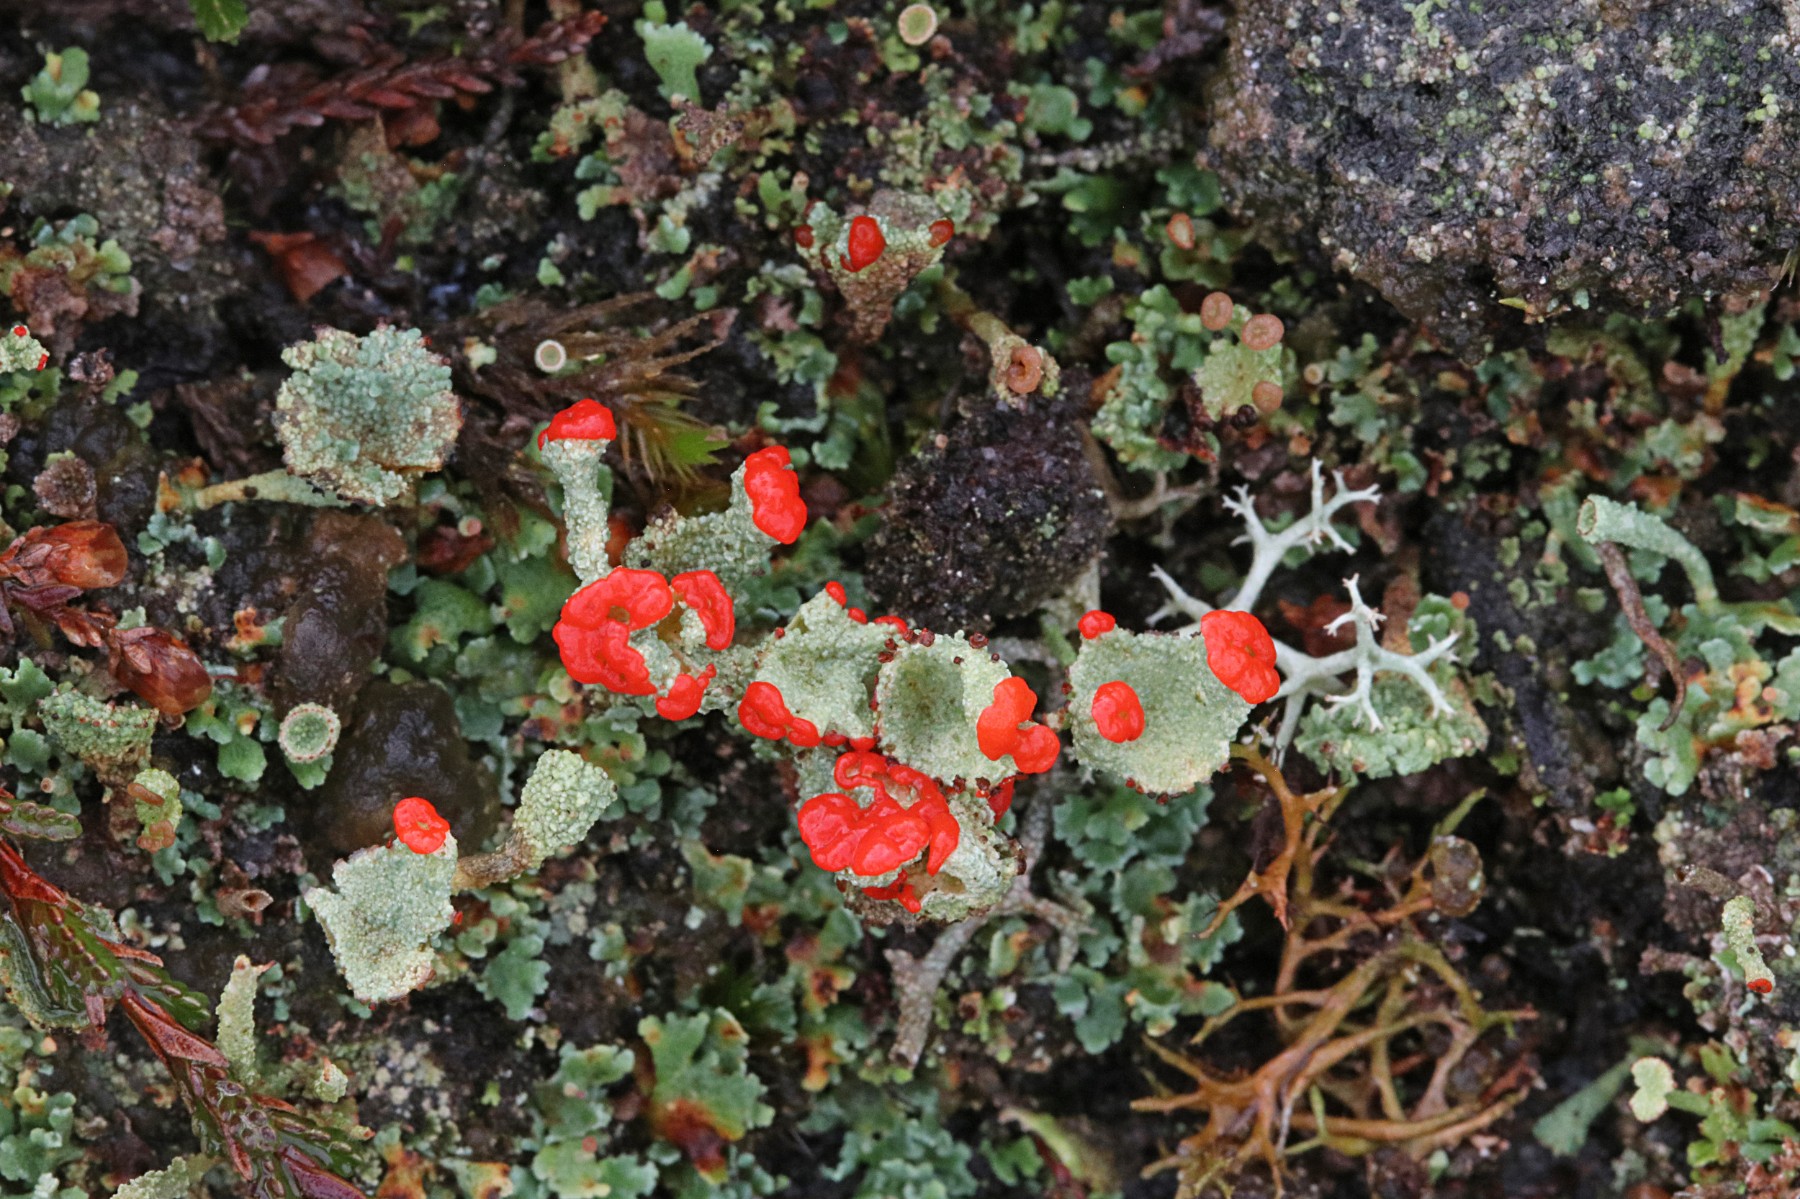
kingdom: Fungi
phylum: Ascomycota
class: Lecanoromycetes
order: Lecanorales
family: Cladoniaceae
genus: Cladonia
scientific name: Cladonia diversa
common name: rød bægerlav
